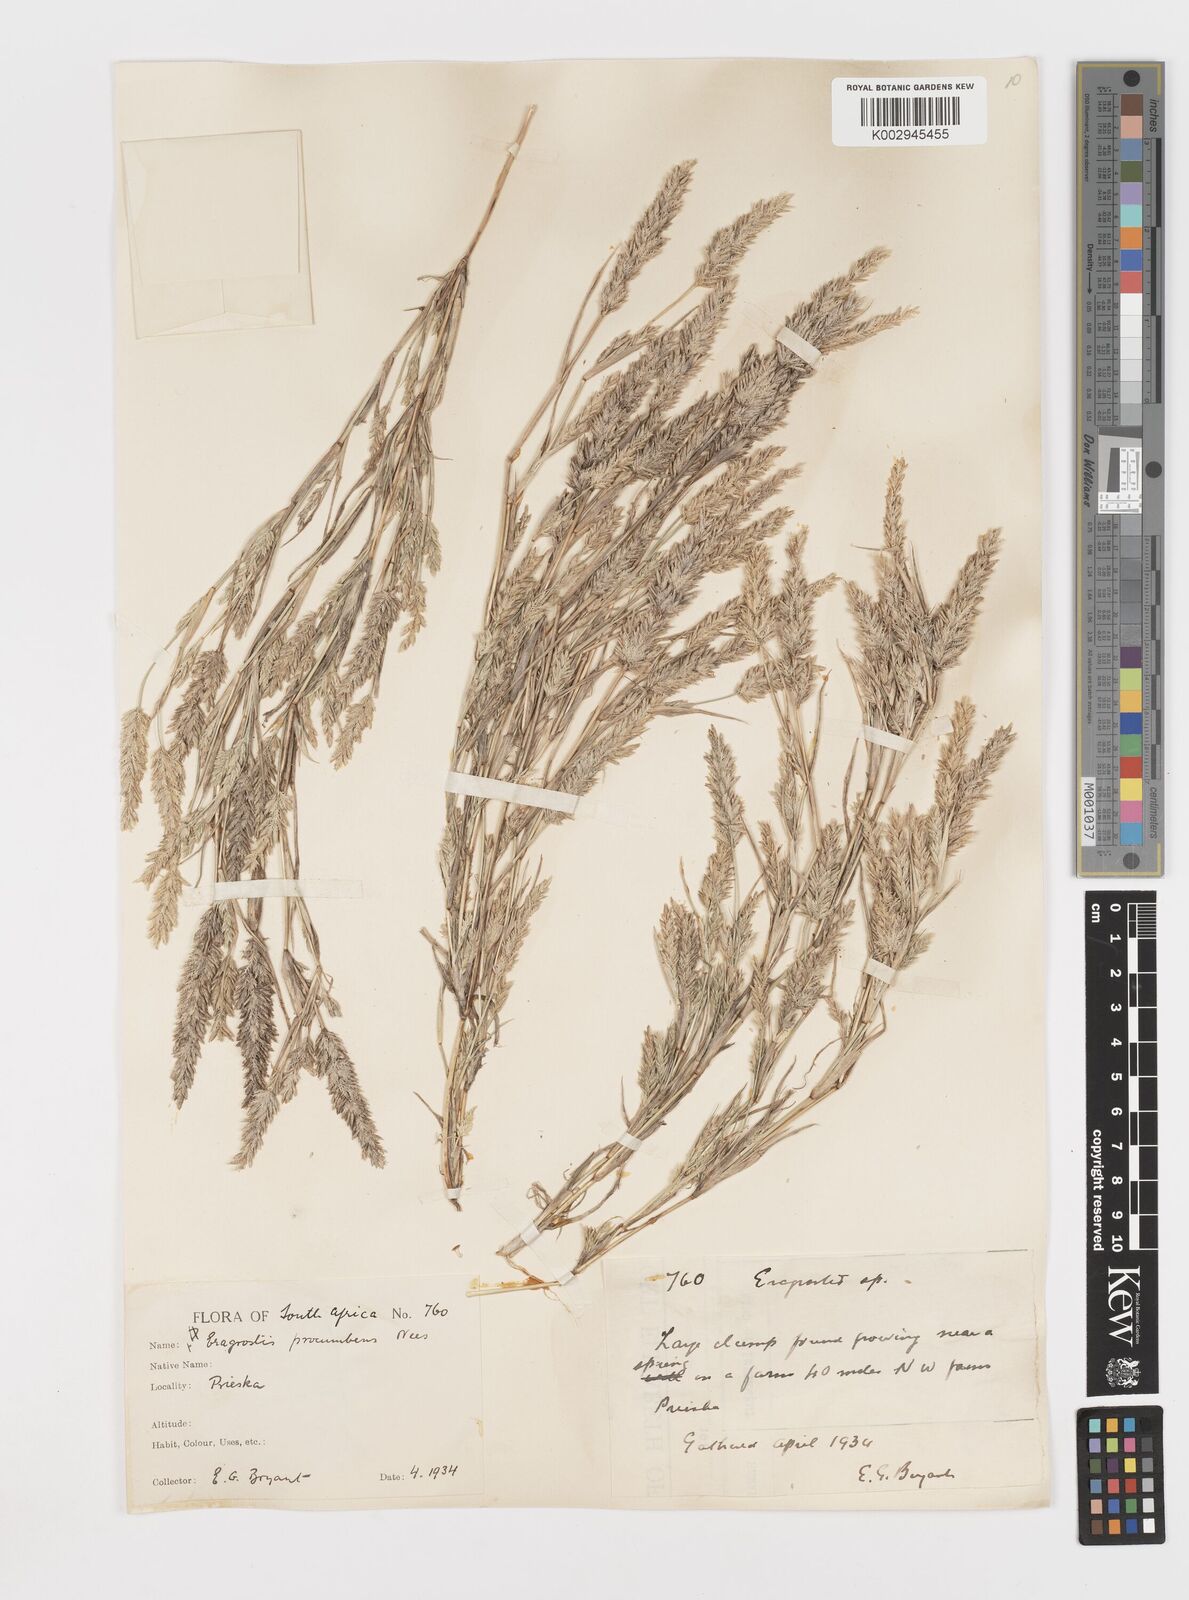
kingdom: Plantae
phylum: Tracheophyta
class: Liliopsida
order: Poales
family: Poaceae
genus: Eragrostis
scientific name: Eragrostis procumbens
